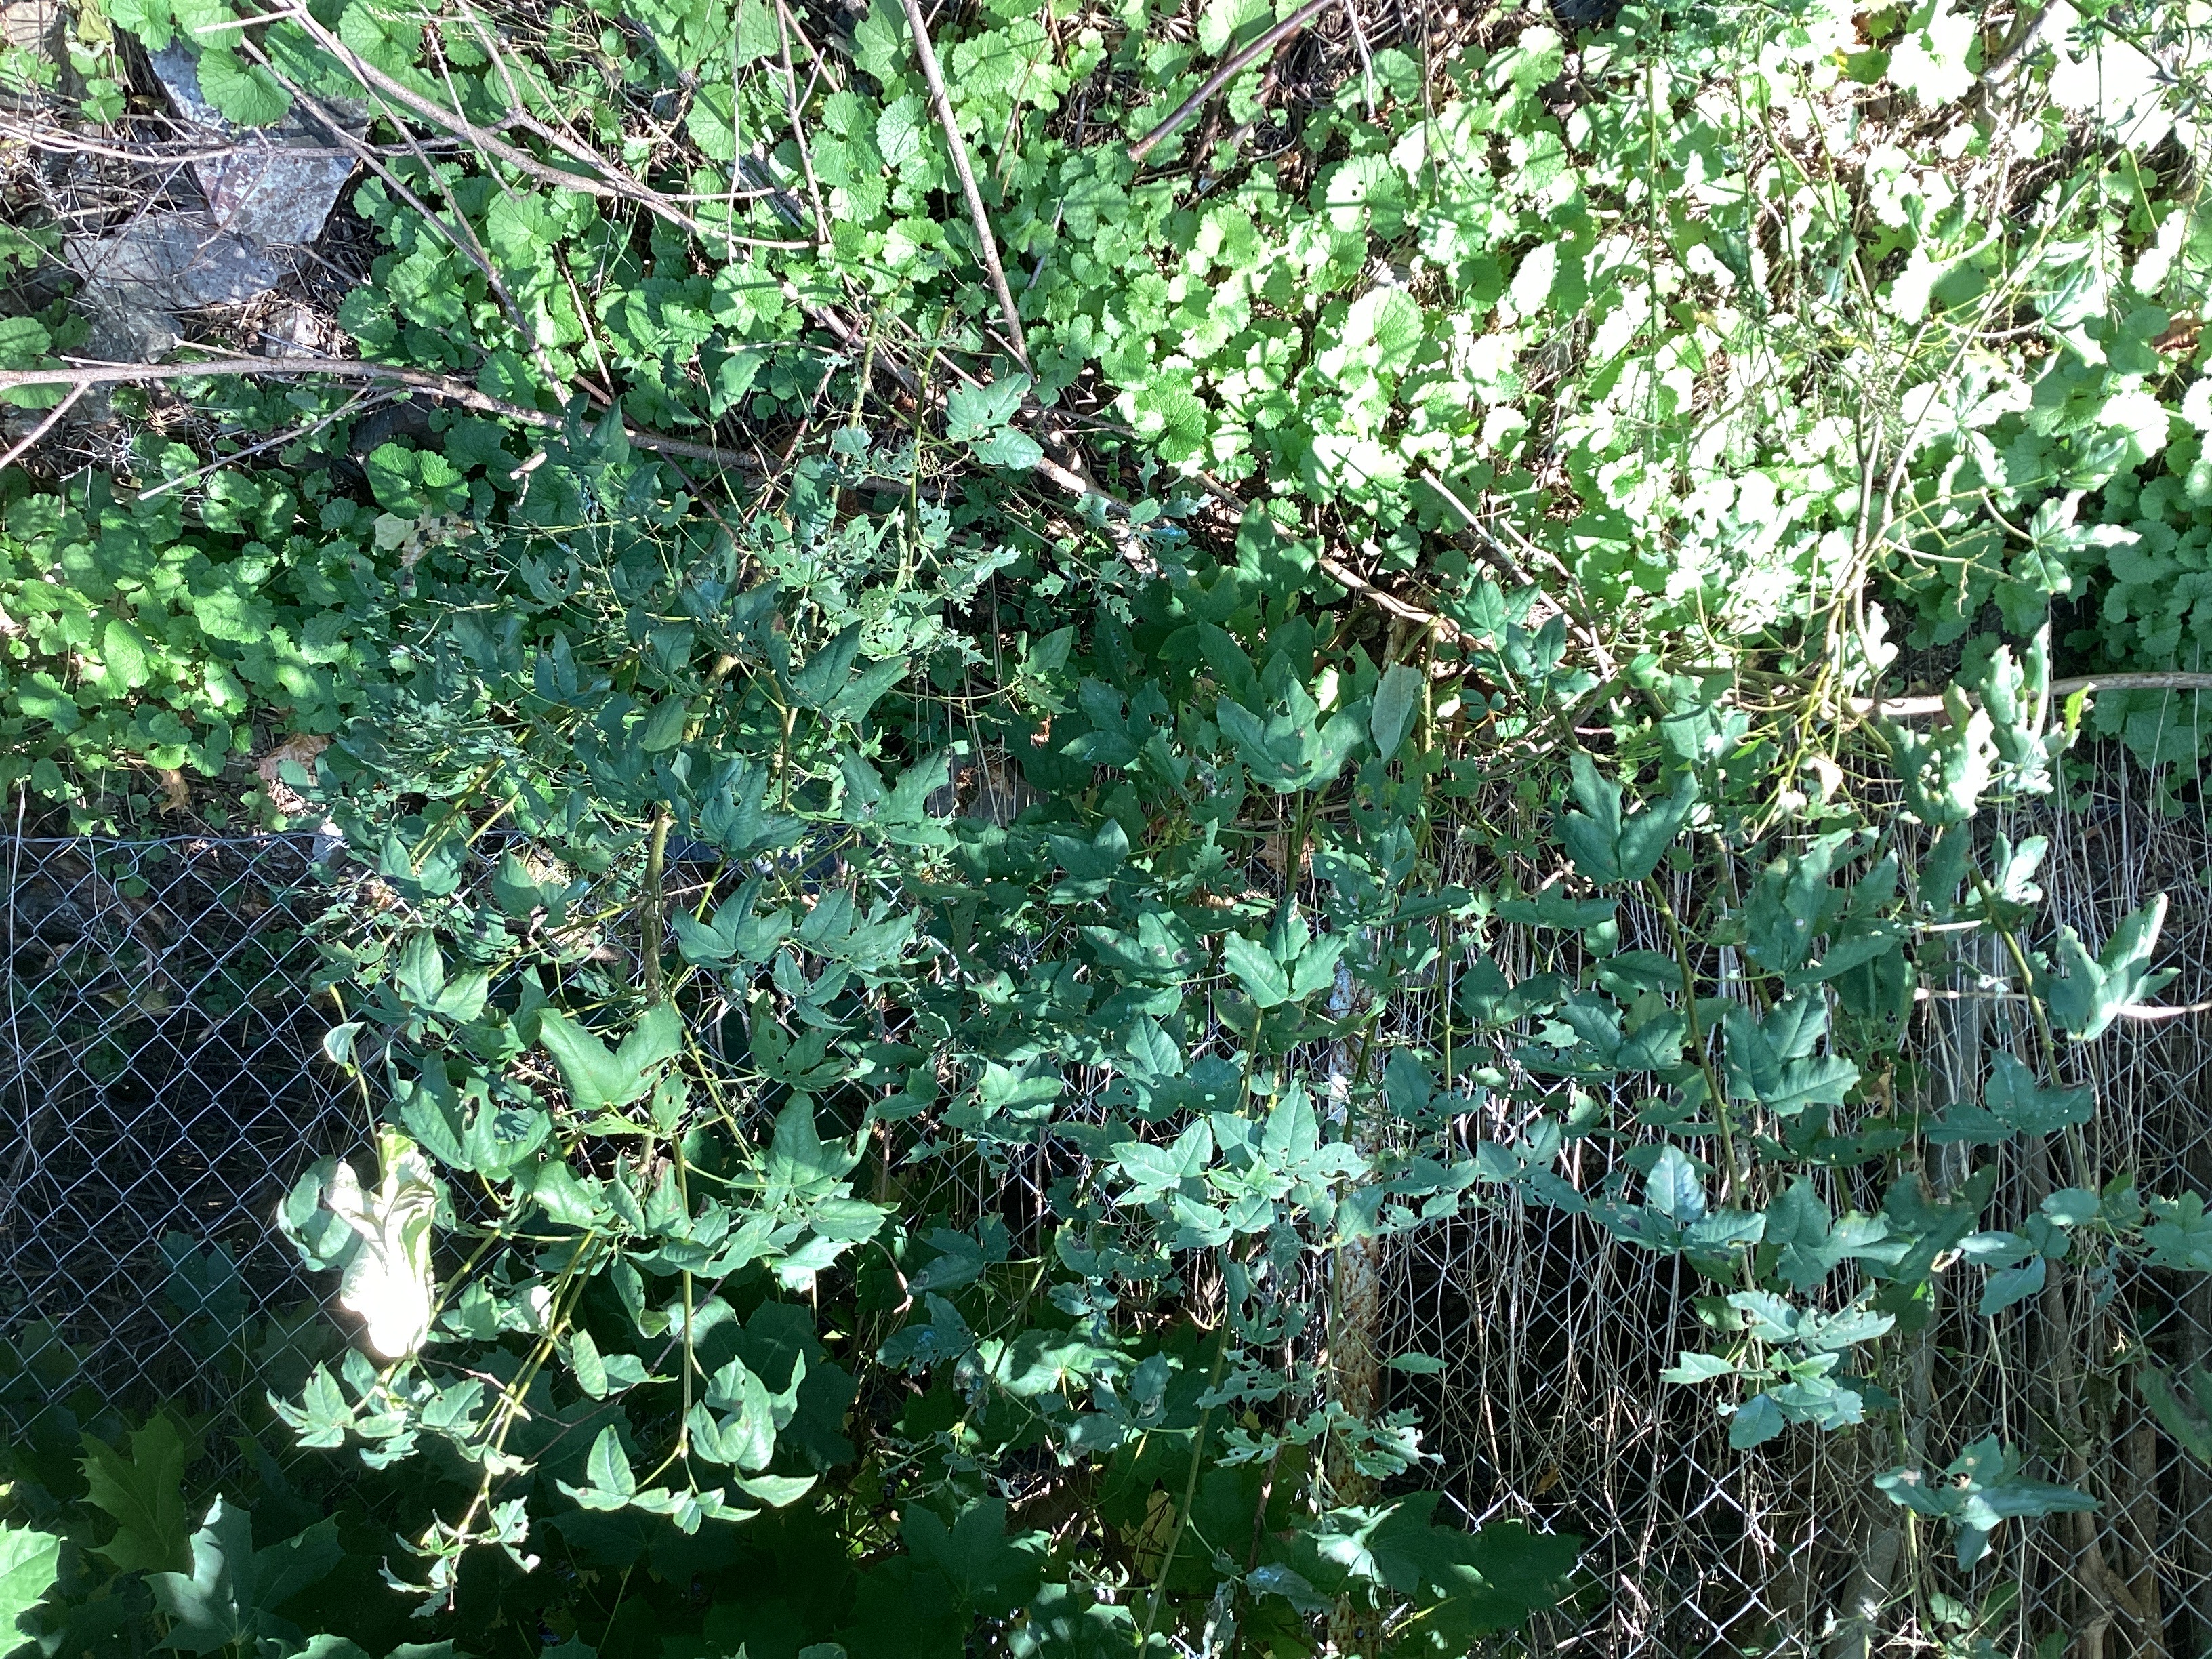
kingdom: Plantae
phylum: Tracheophyta
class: Magnoliopsida
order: Fabales
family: Fabaceae
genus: Laburnum
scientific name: Laburnum anagyroides
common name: gullregn
